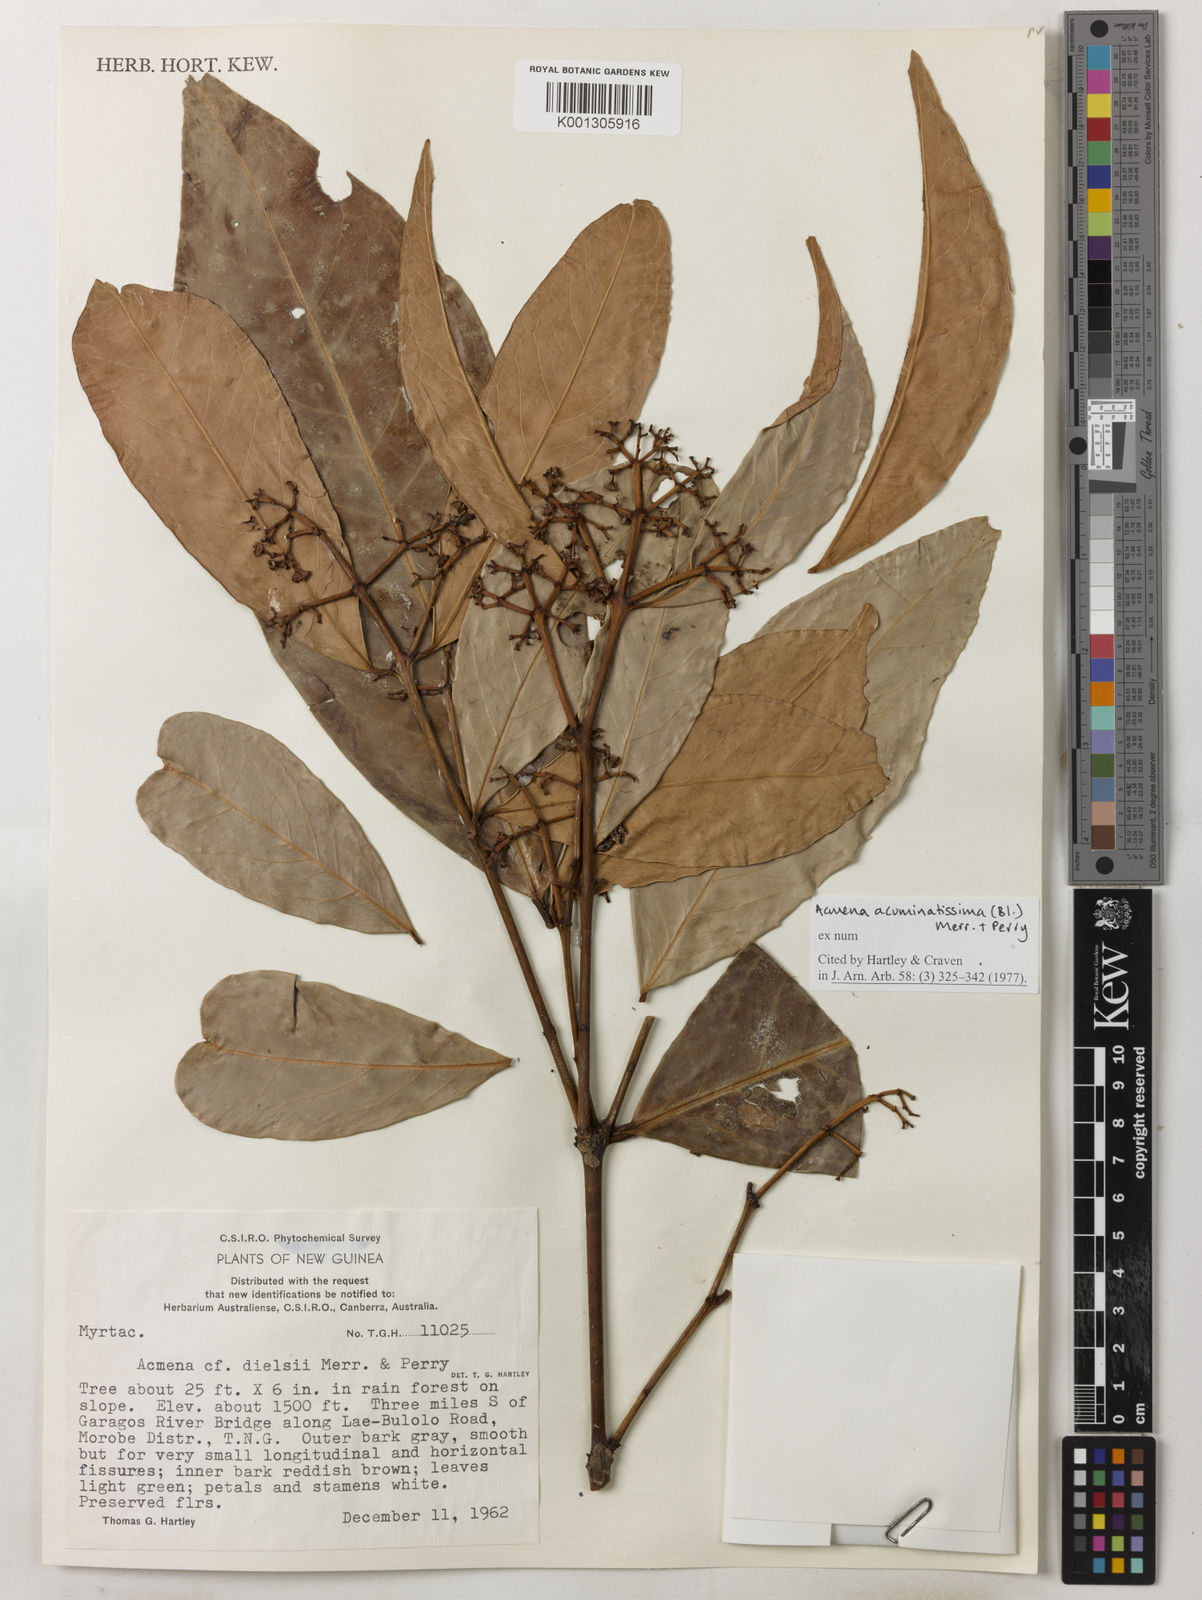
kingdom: Plantae
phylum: Tracheophyta
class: Magnoliopsida
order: Myrtales
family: Myrtaceae
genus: Syzygium
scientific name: Syzygium acuminatissimum
